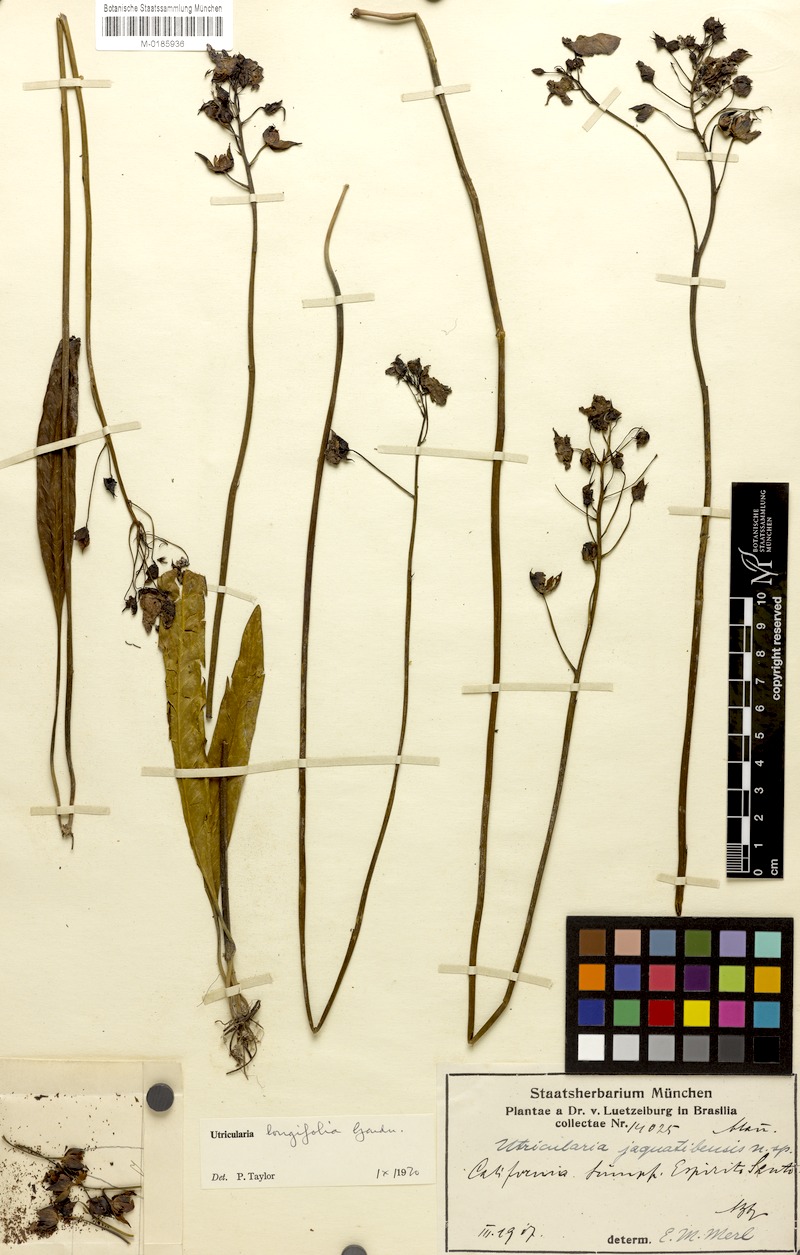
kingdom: Plantae
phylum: Tracheophyta
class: Magnoliopsida
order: Lamiales
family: Lentibulariaceae
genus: Utricularia
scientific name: Utricularia longifolia
